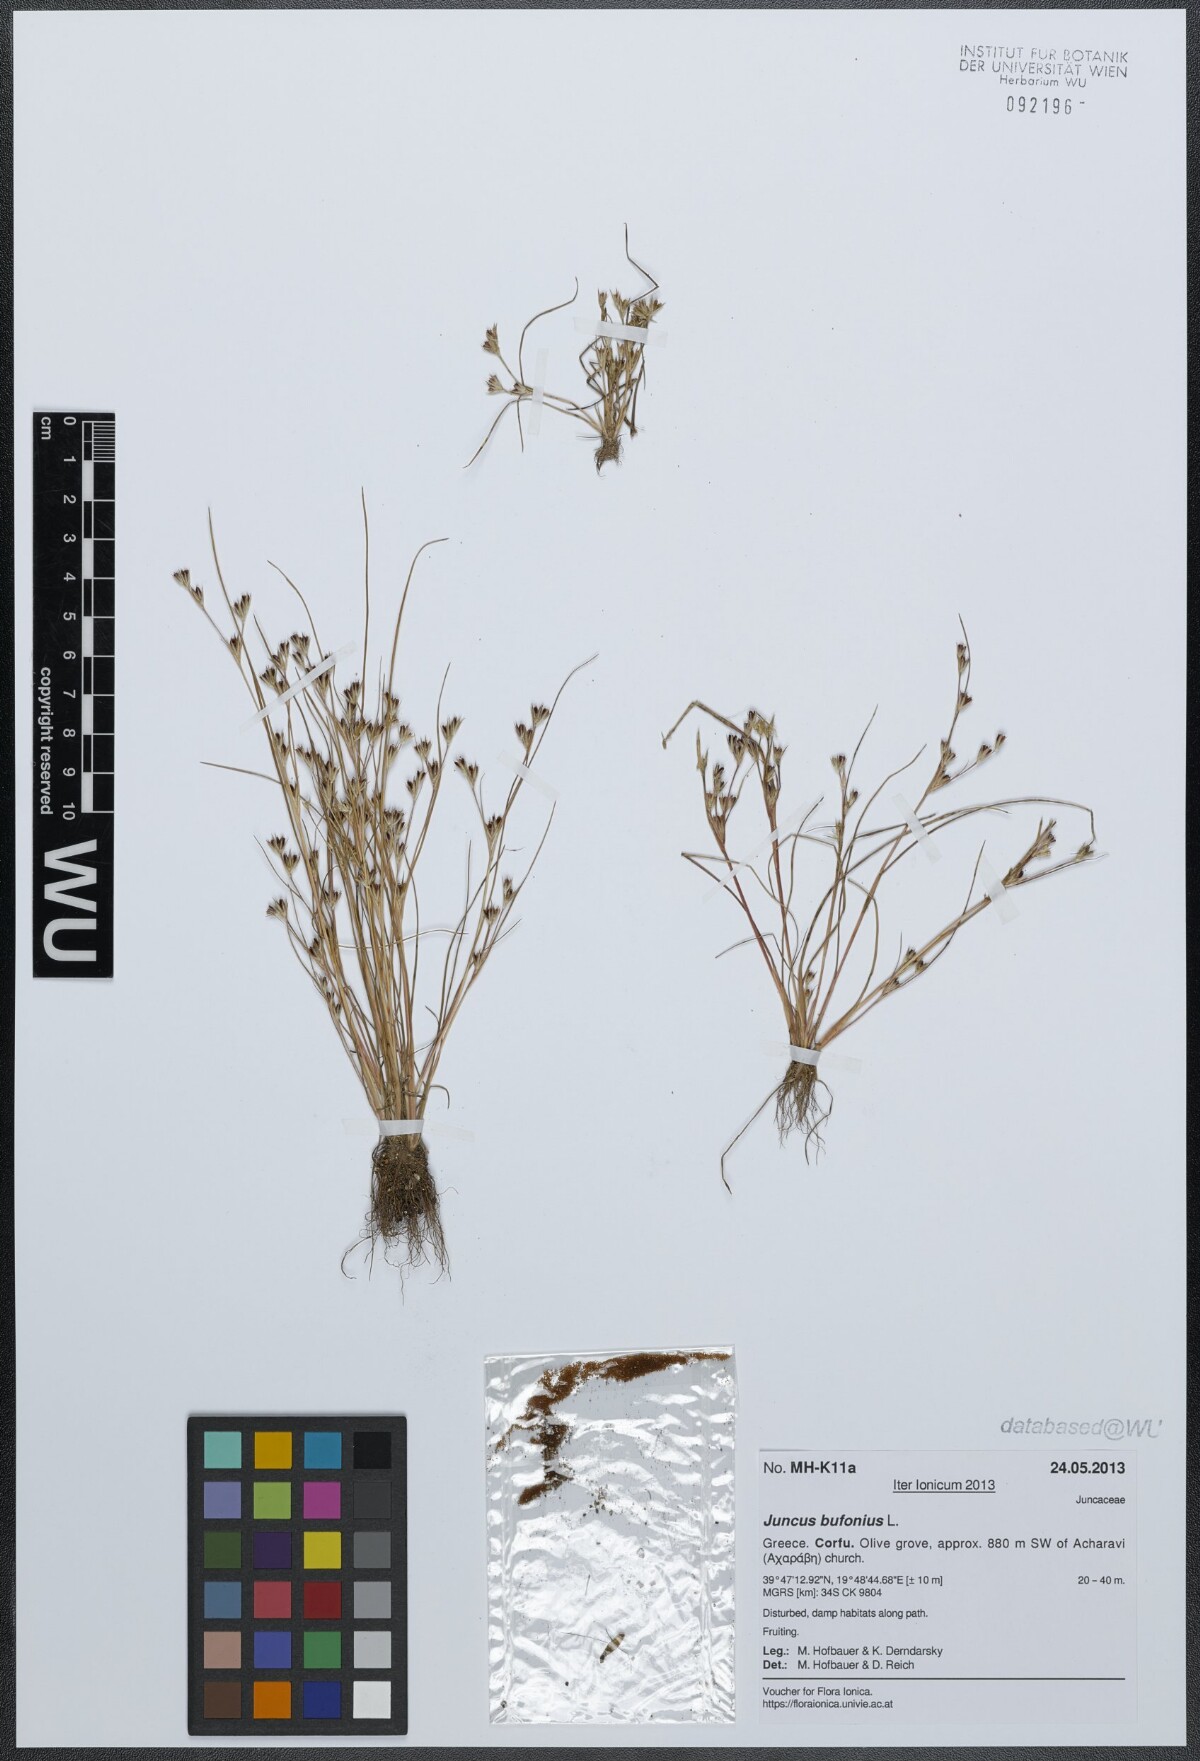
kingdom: Plantae
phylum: Tracheophyta
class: Liliopsida
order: Poales
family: Juncaceae
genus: Juncus
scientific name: Juncus bufonius
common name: Toad rush
